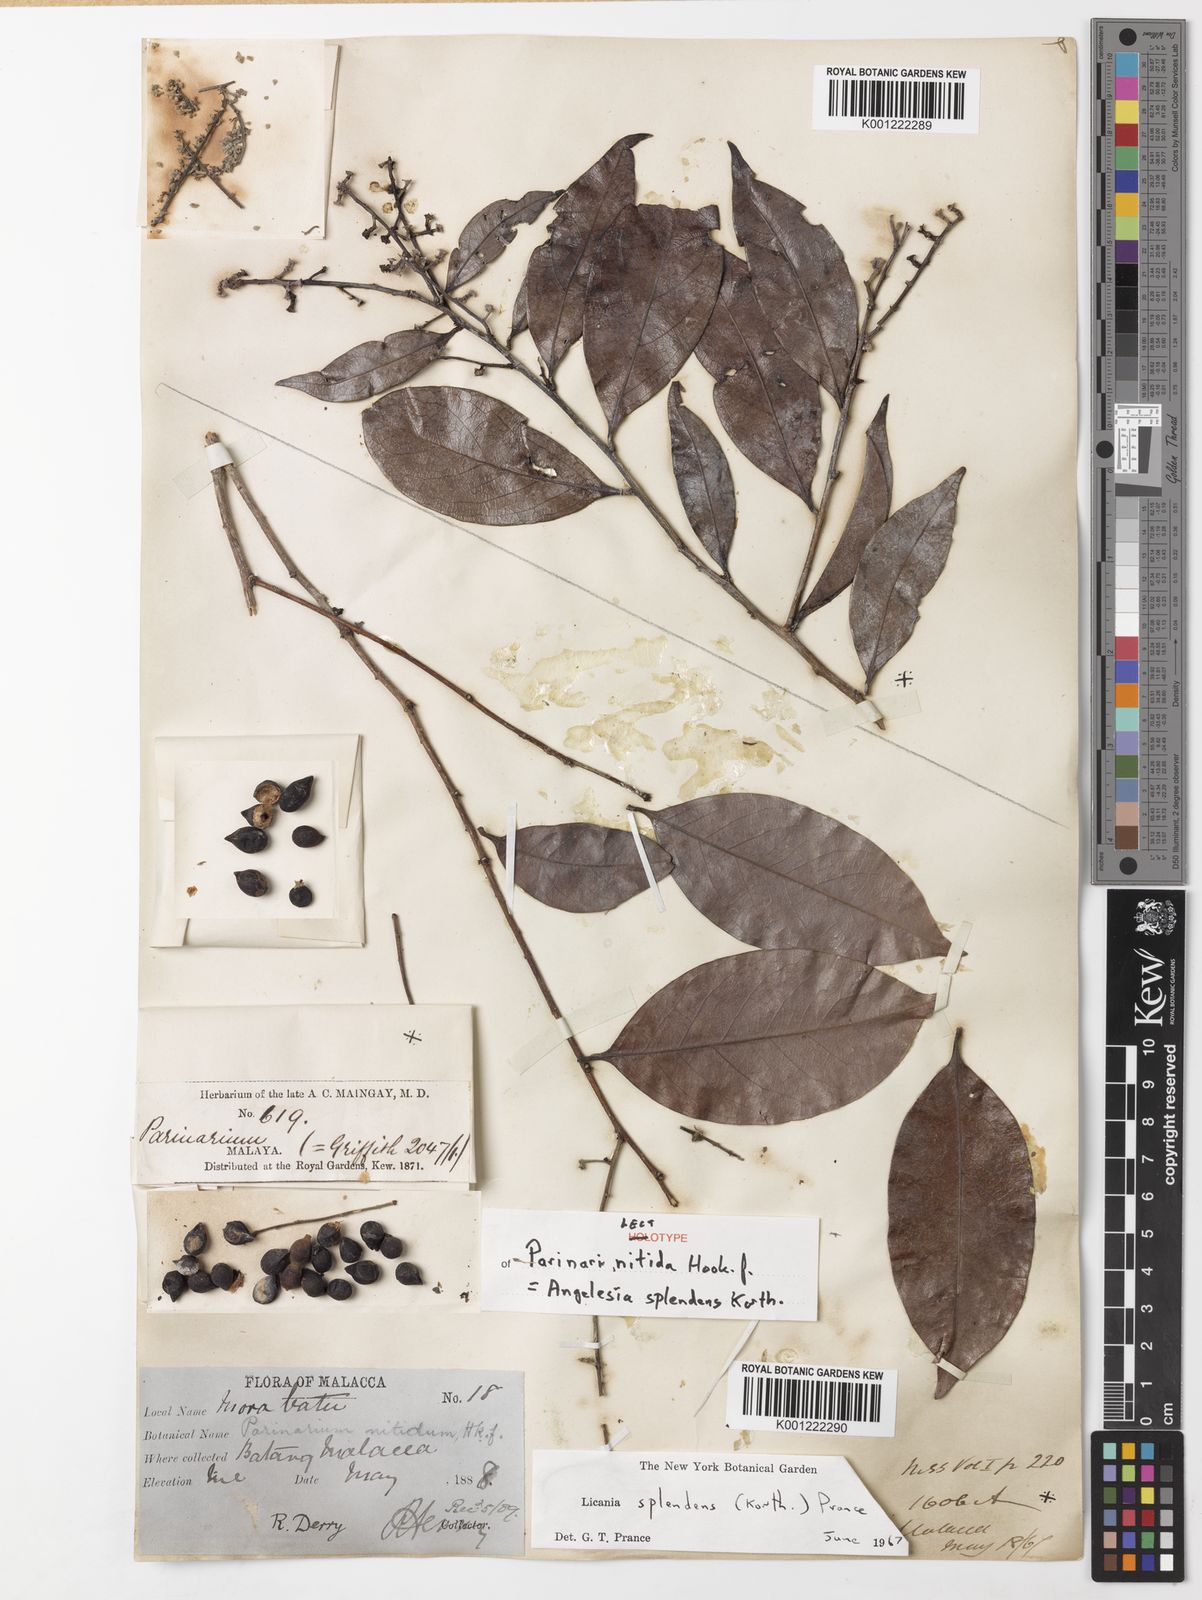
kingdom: Plantae
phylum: Tracheophyta
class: Magnoliopsida
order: Malpighiales
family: Chrysobalanaceae
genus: Angelesia
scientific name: Angelesia splendens
